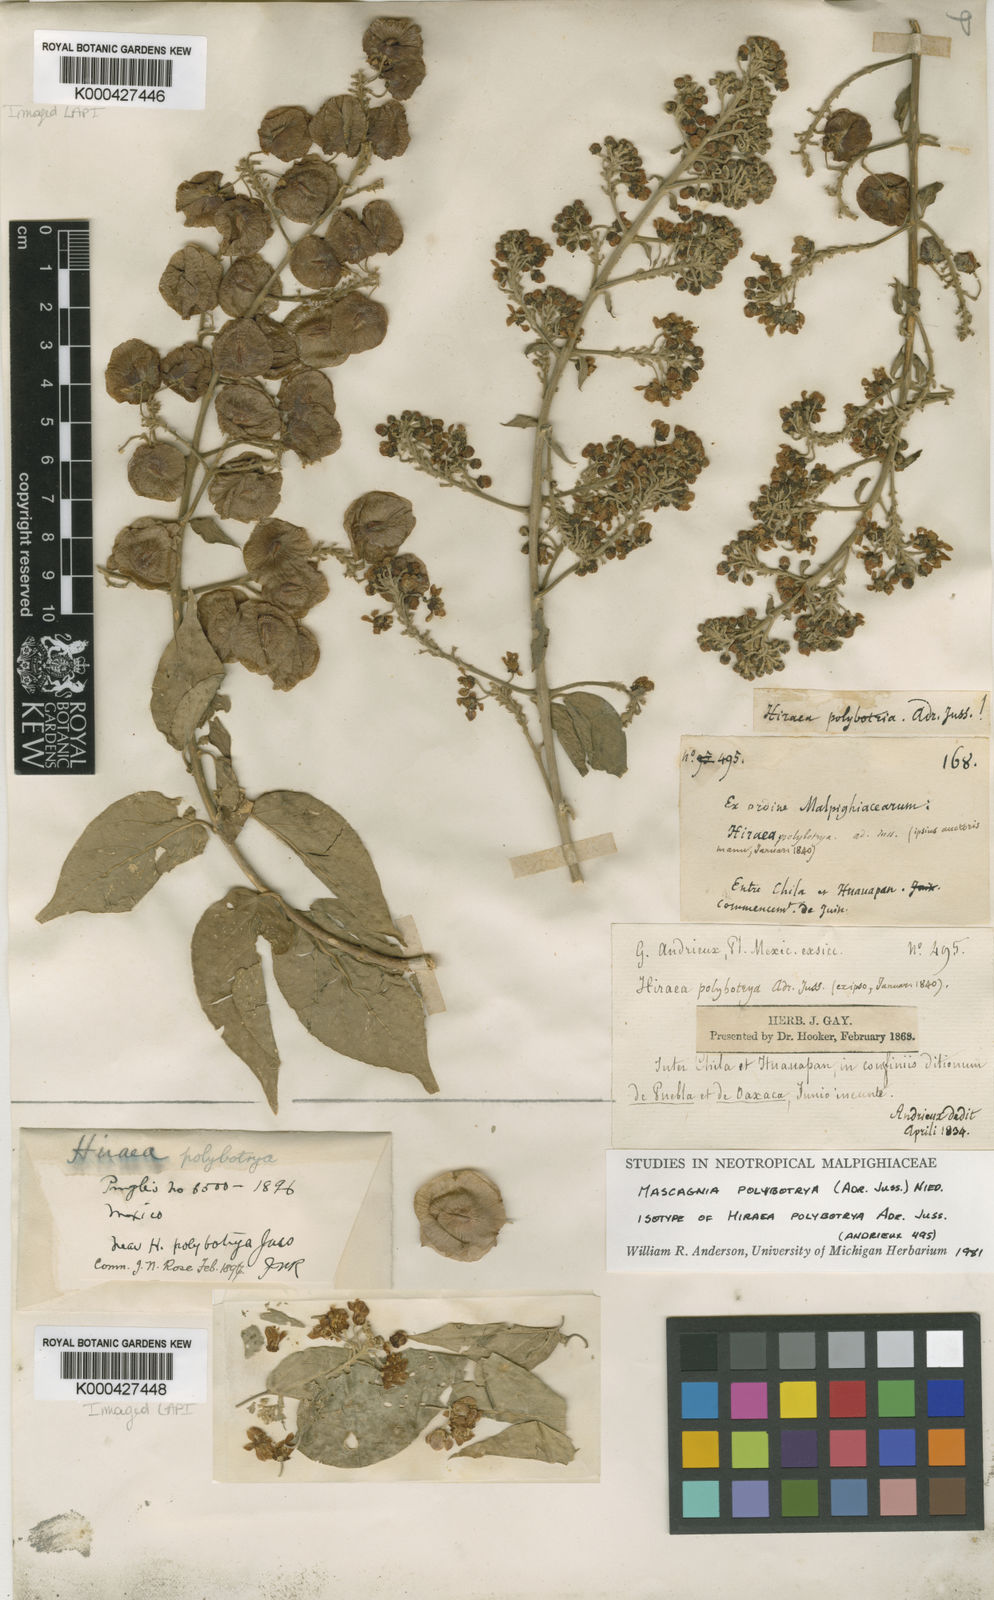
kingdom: Plantae
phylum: Tracheophyta
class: Magnoliopsida
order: Malpighiales
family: Malpighiaceae
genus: Mascagnia
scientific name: Mascagnia polybotrya
